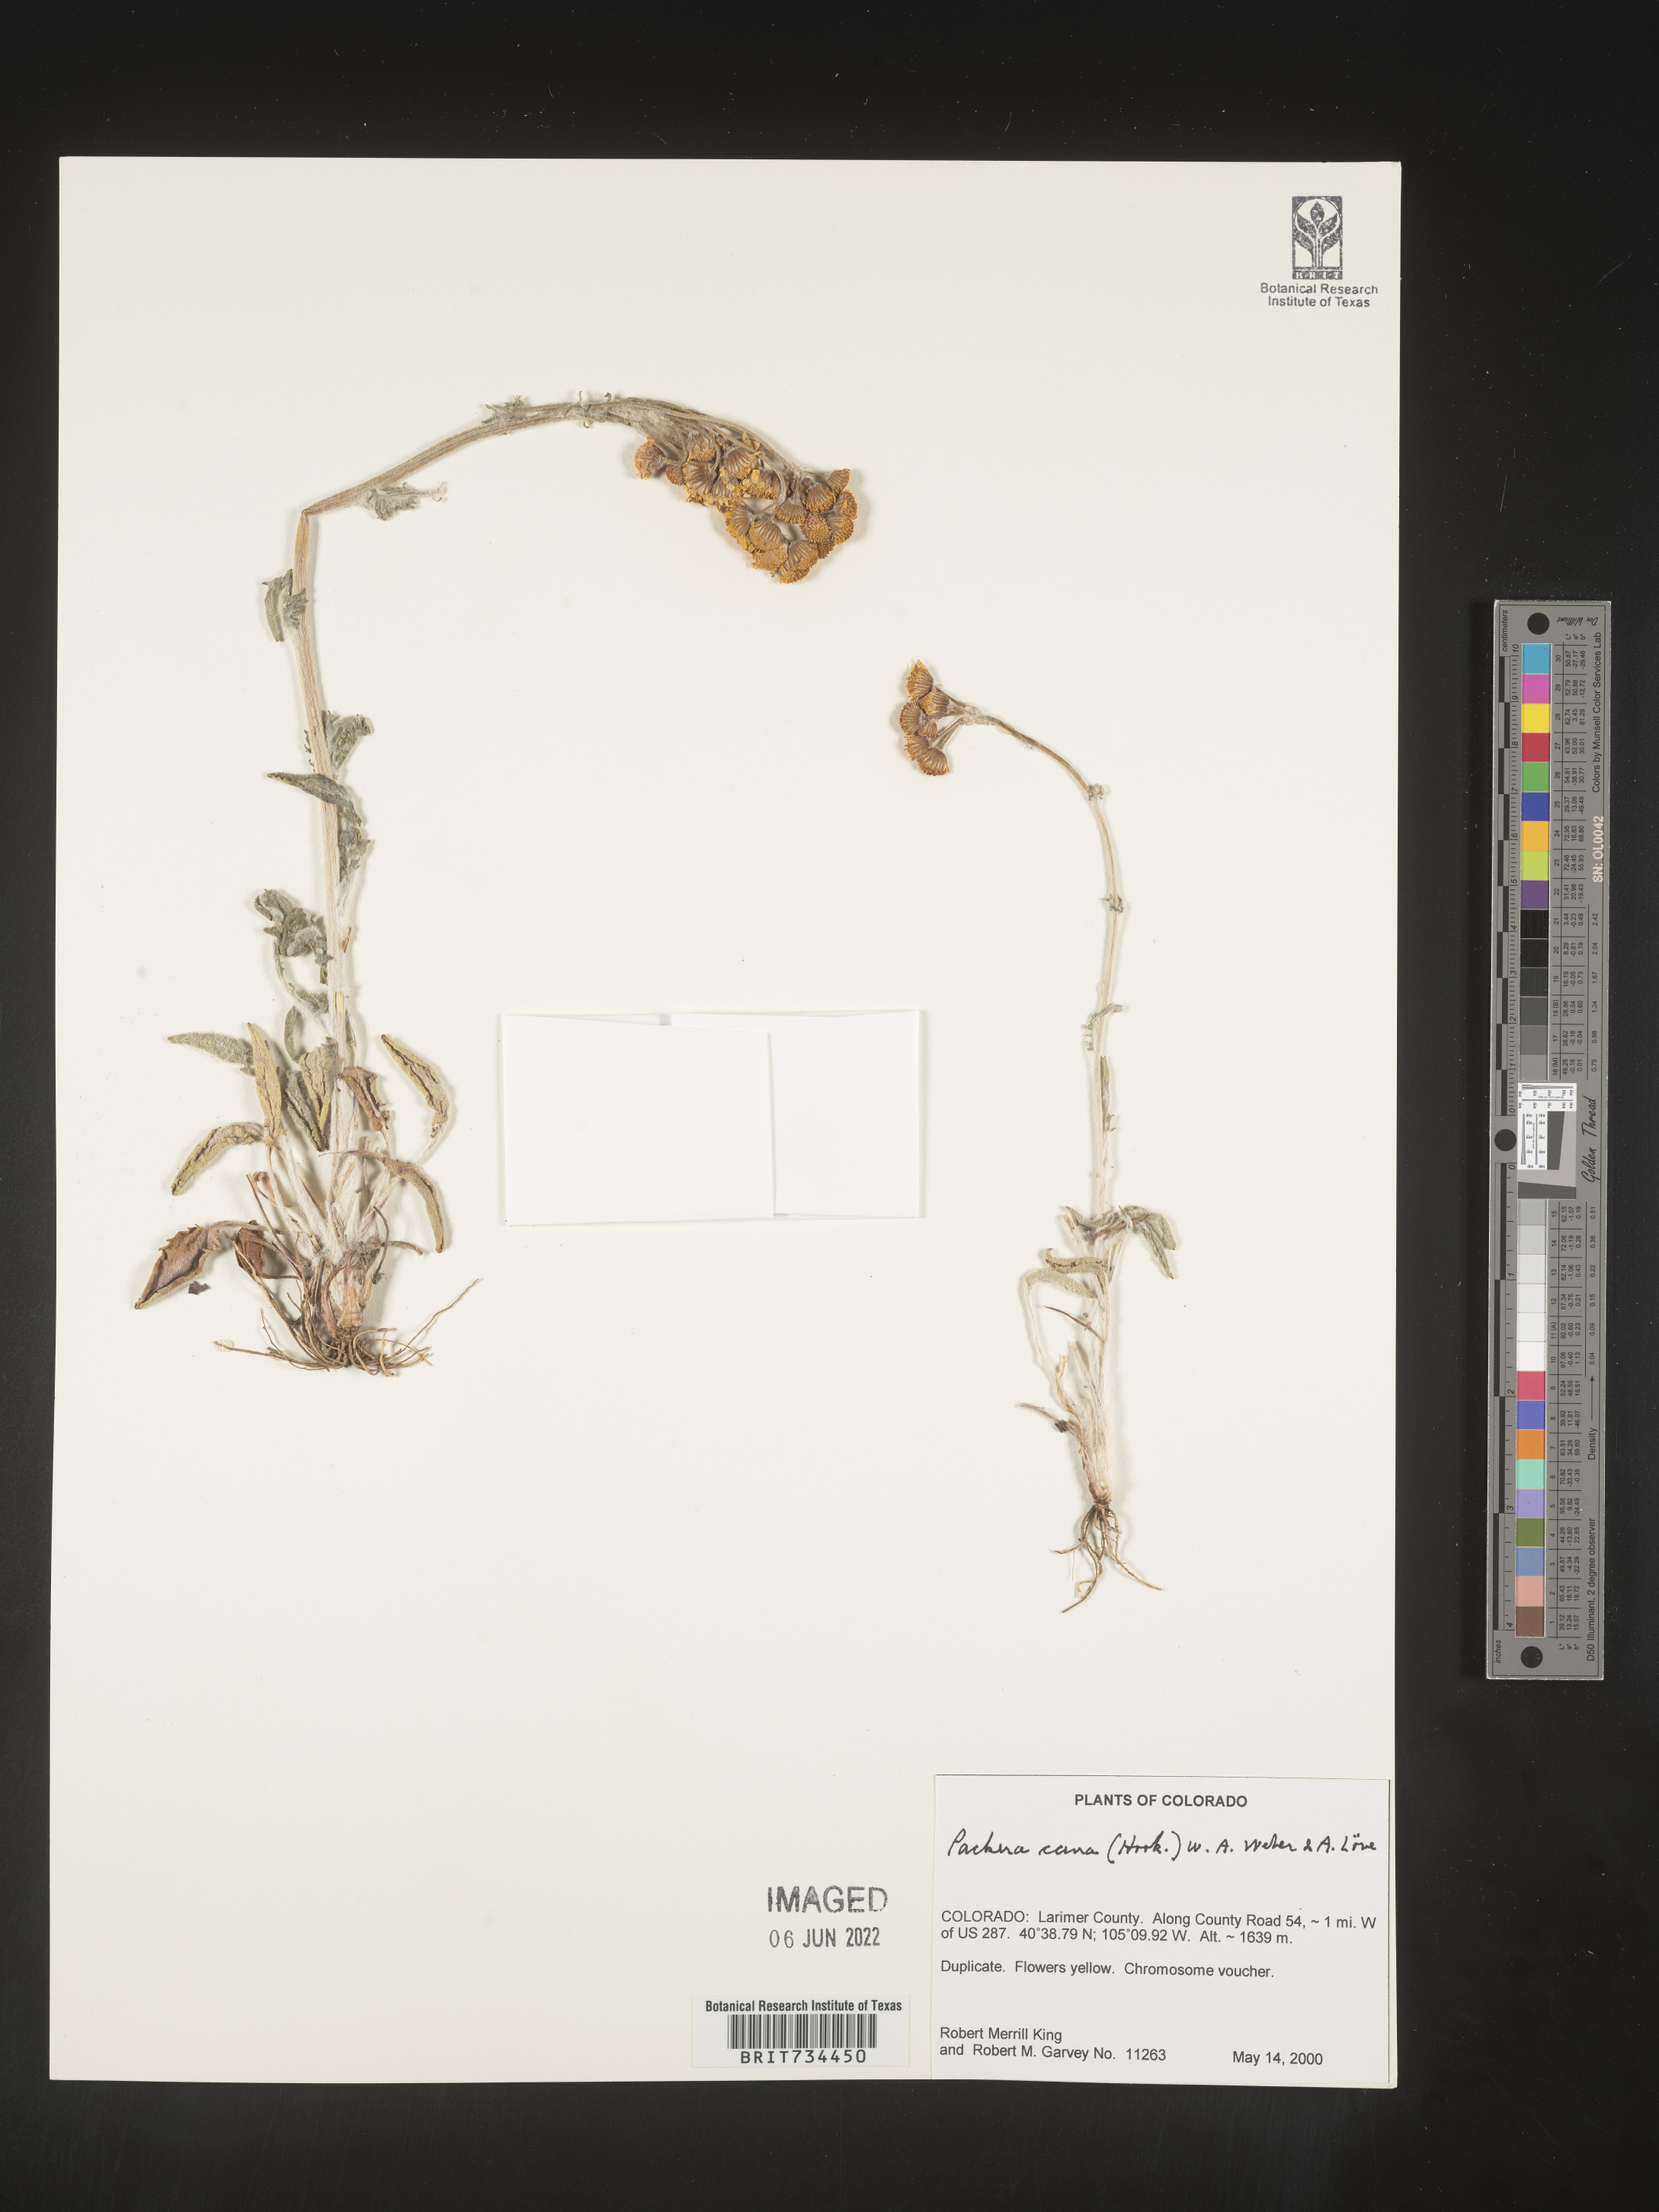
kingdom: Plantae
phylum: Tracheophyta
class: Magnoliopsida
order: Asterales
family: Asteraceae
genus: Packera
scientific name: Packera cana
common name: Woolly groundsel
